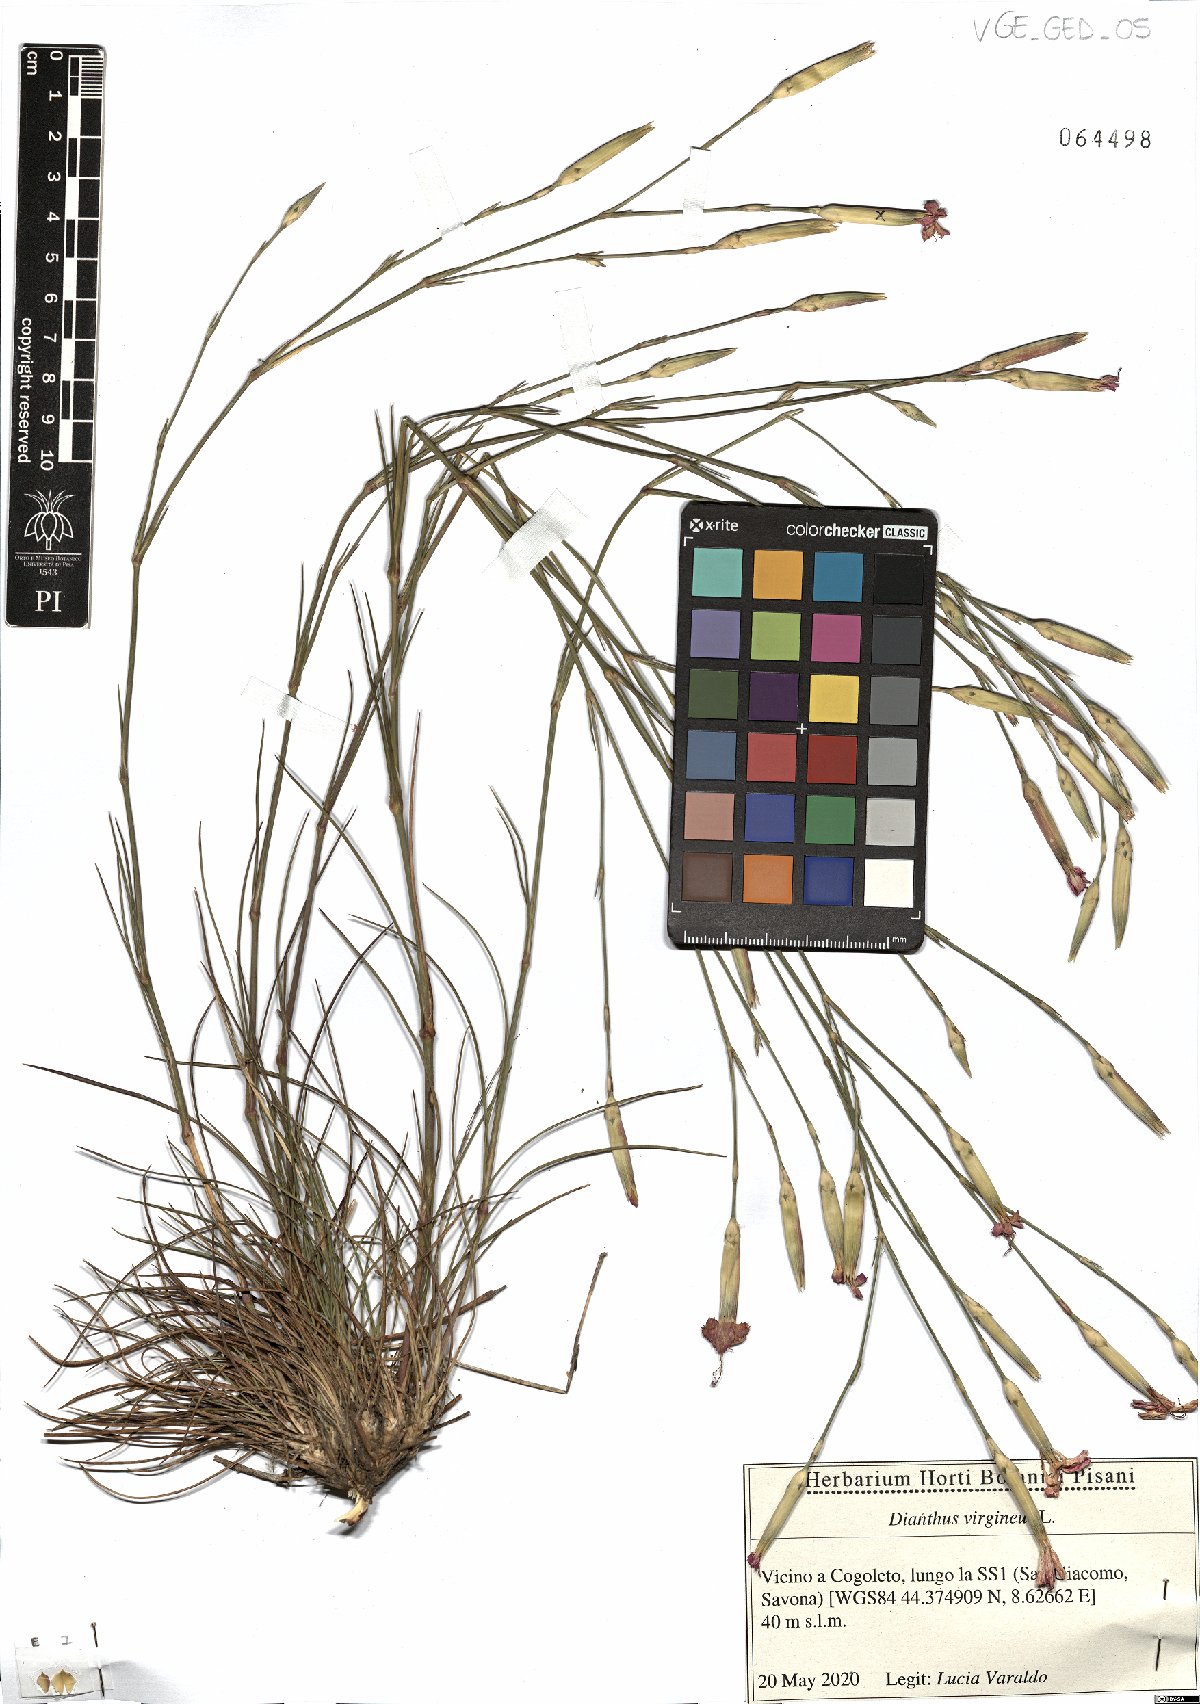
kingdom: Plantae
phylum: Tracheophyta
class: Magnoliopsida
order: Caryophyllales
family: Caryophyllaceae
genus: Dianthus
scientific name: Dianthus virgineus
